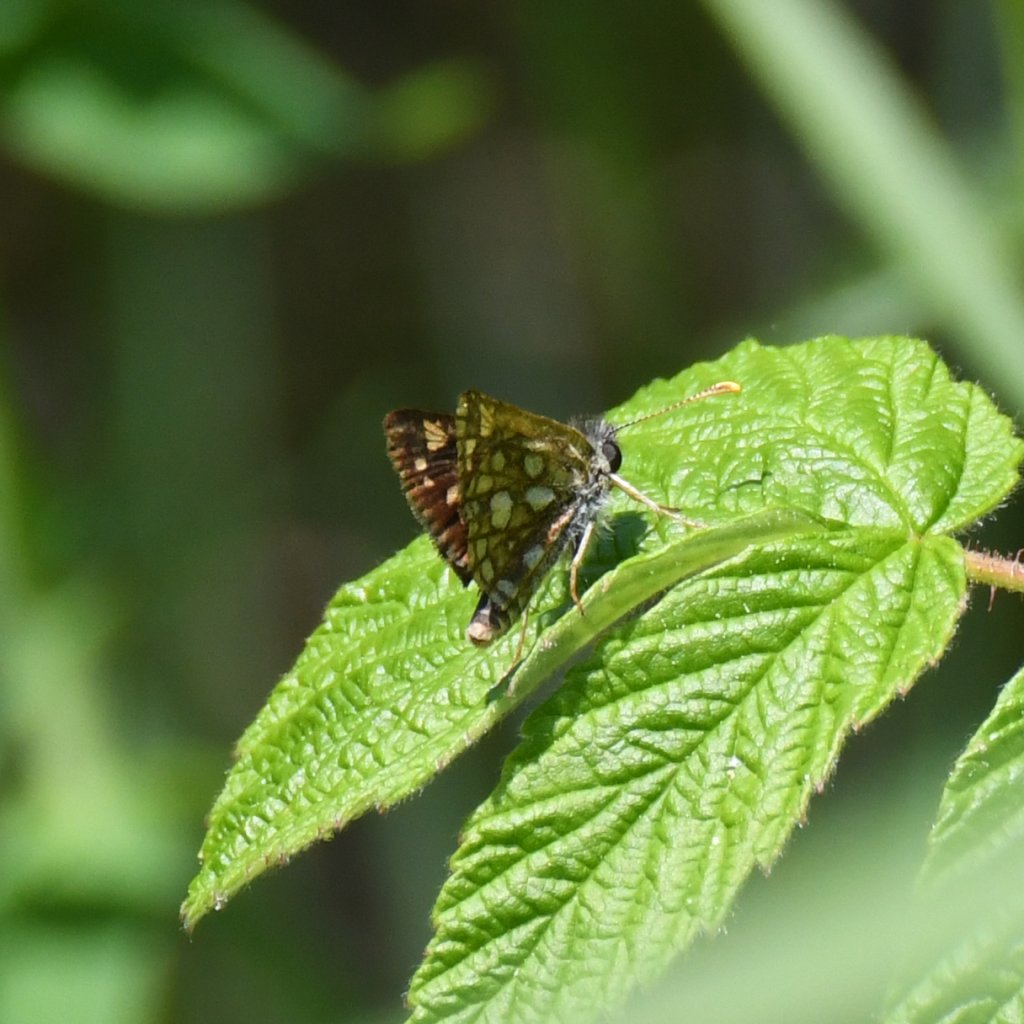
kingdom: Animalia
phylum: Arthropoda
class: Insecta
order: Lepidoptera
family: Hesperiidae
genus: Carterocephalus
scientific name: Carterocephalus palaemon
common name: Chequered Skipper
